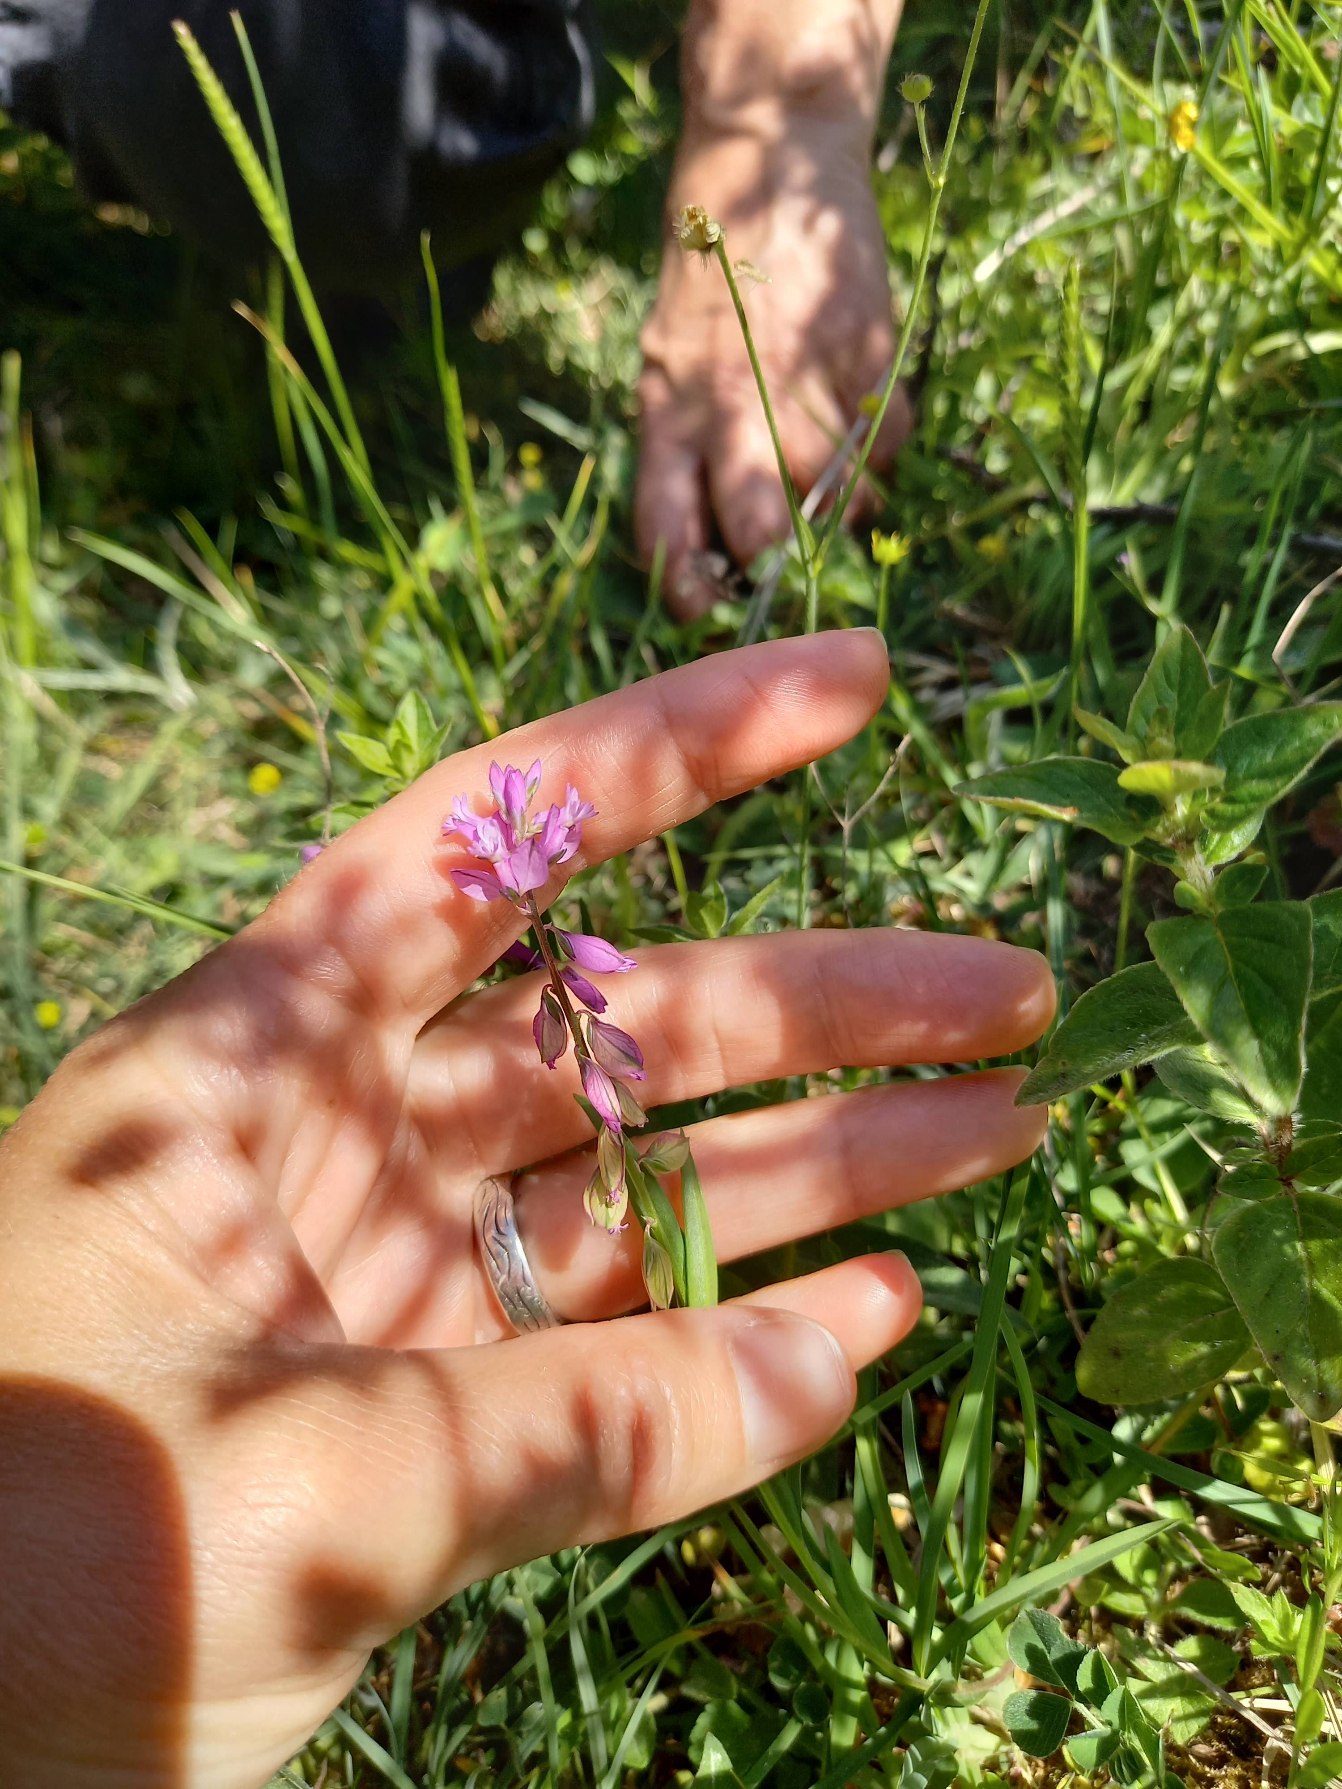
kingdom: Plantae
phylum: Tracheophyta
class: Magnoliopsida
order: Fabales
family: Polygalaceae
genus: Polygala
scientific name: Polygala vulgaris
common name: Almindelig mælkeurt
